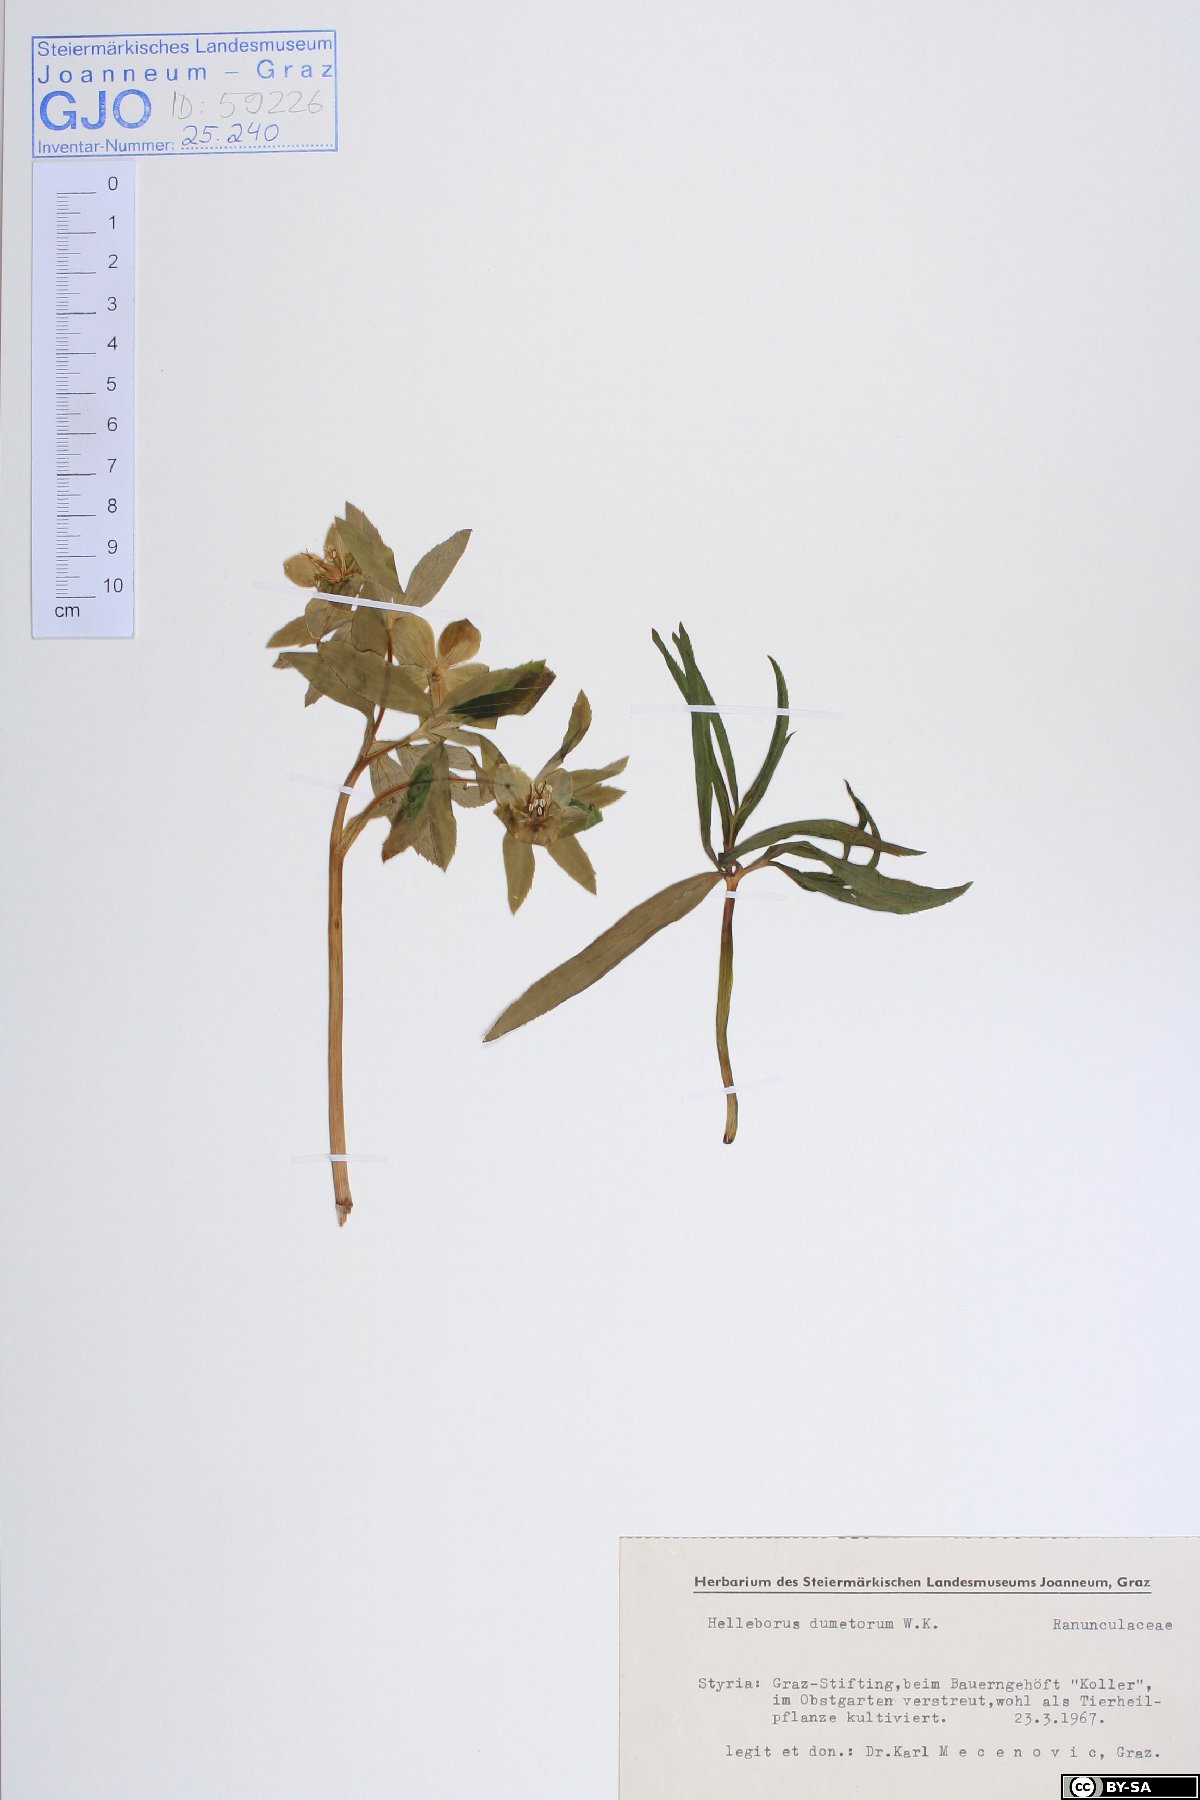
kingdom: Plantae
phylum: Tracheophyta
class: Magnoliopsida
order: Ranunculales
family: Ranunculaceae
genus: Helleborus
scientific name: Helleborus dumetorum
